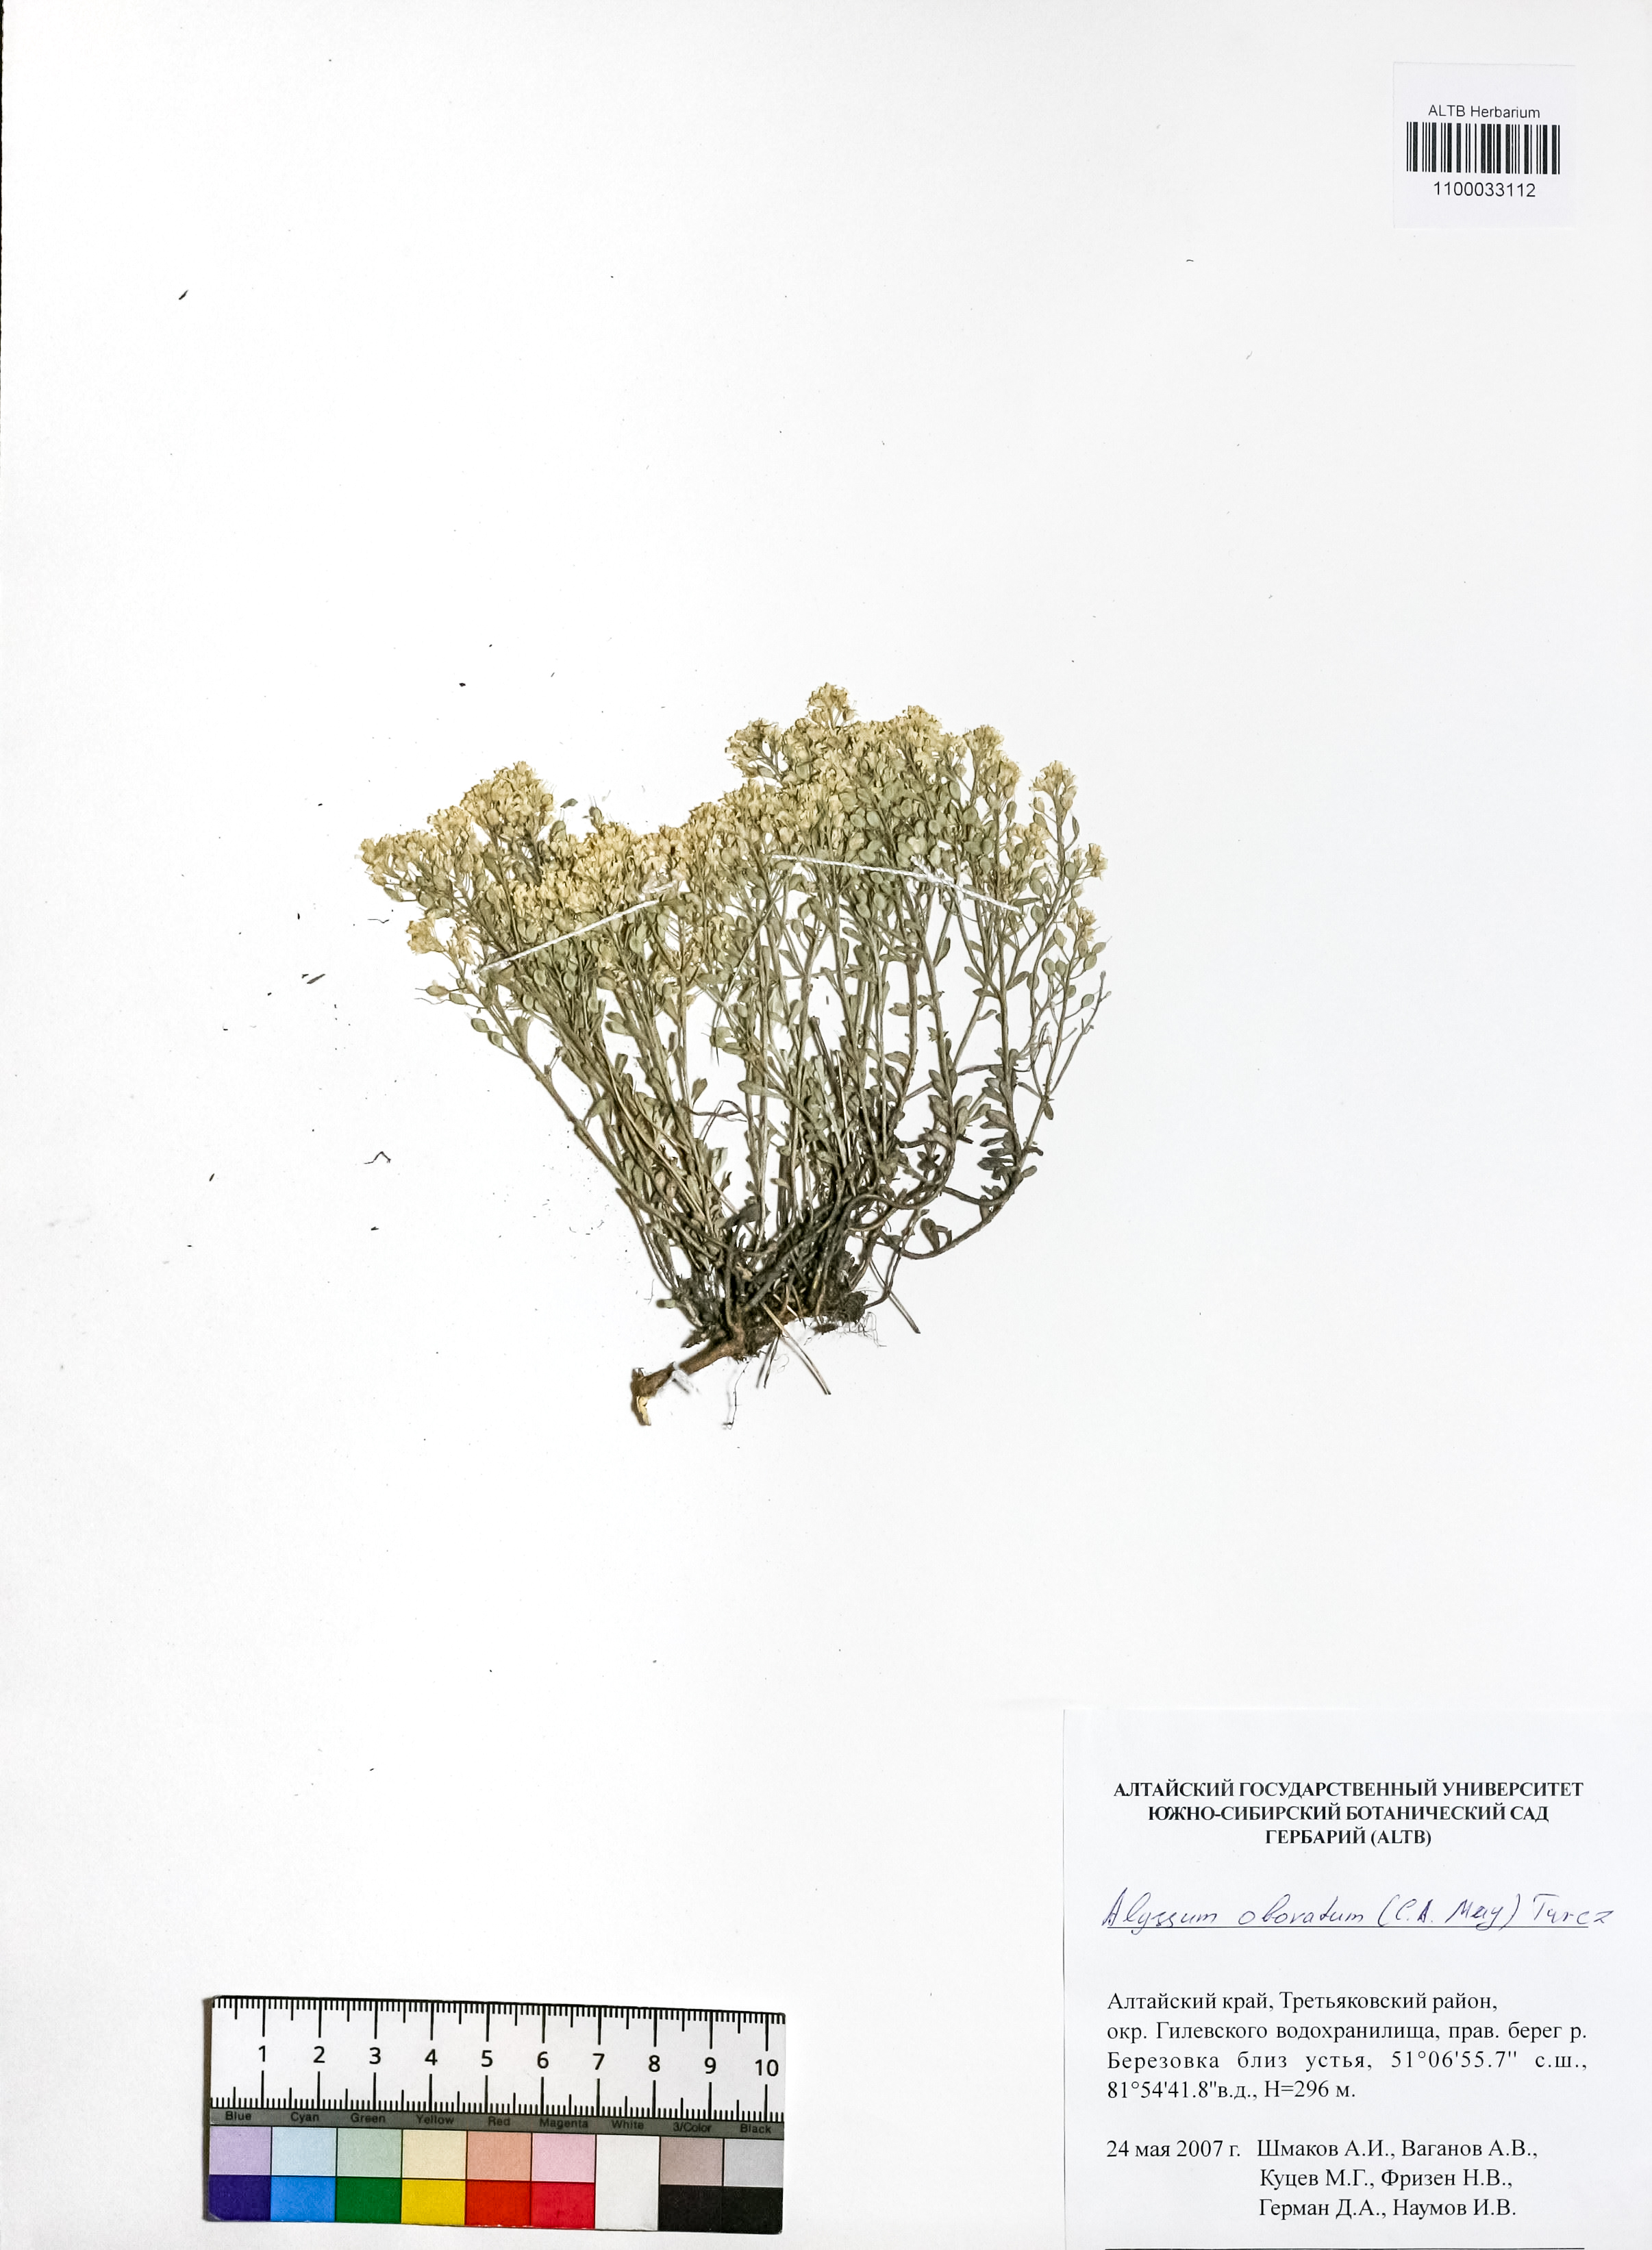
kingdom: Plantae
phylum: Tracheophyta
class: Magnoliopsida
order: Brassicales
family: Brassicaceae
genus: Odontarrhena
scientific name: Odontarrhena obovata
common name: American alyssum
